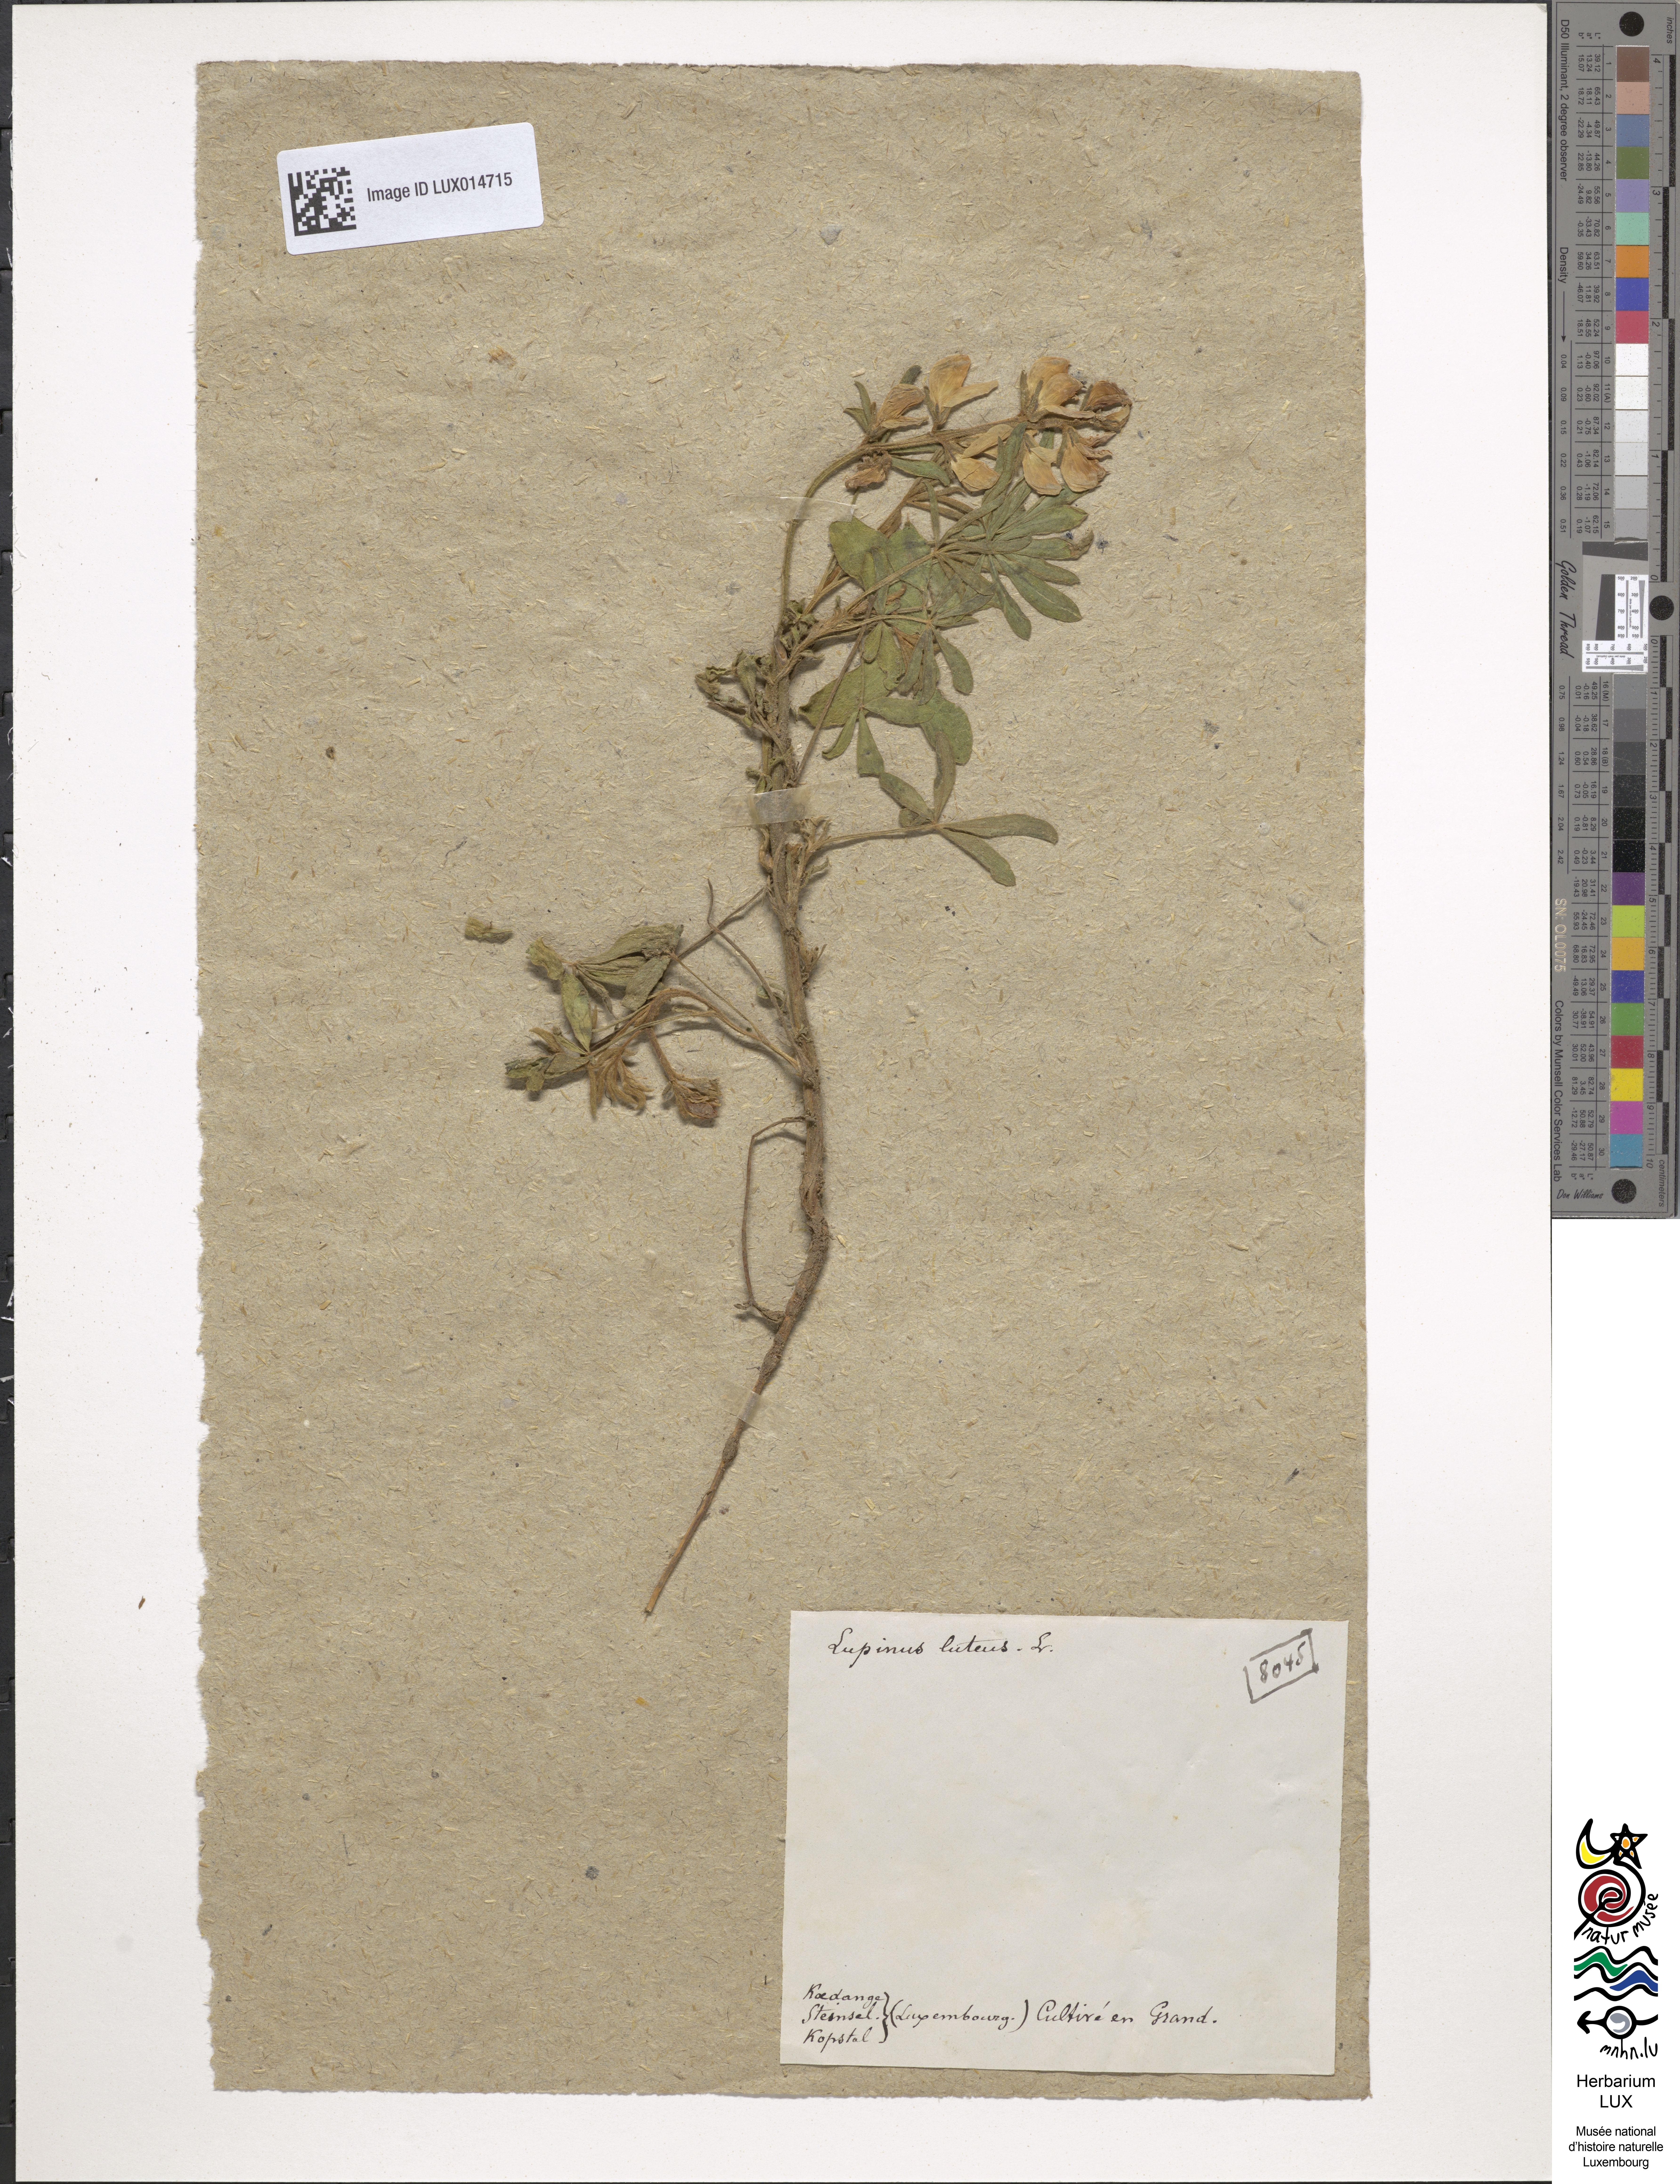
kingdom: Plantae
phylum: Tracheophyta
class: Magnoliopsida
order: Fabales
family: Fabaceae
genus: Lupinus
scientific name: Lupinus luteus
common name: European yellow lupine
